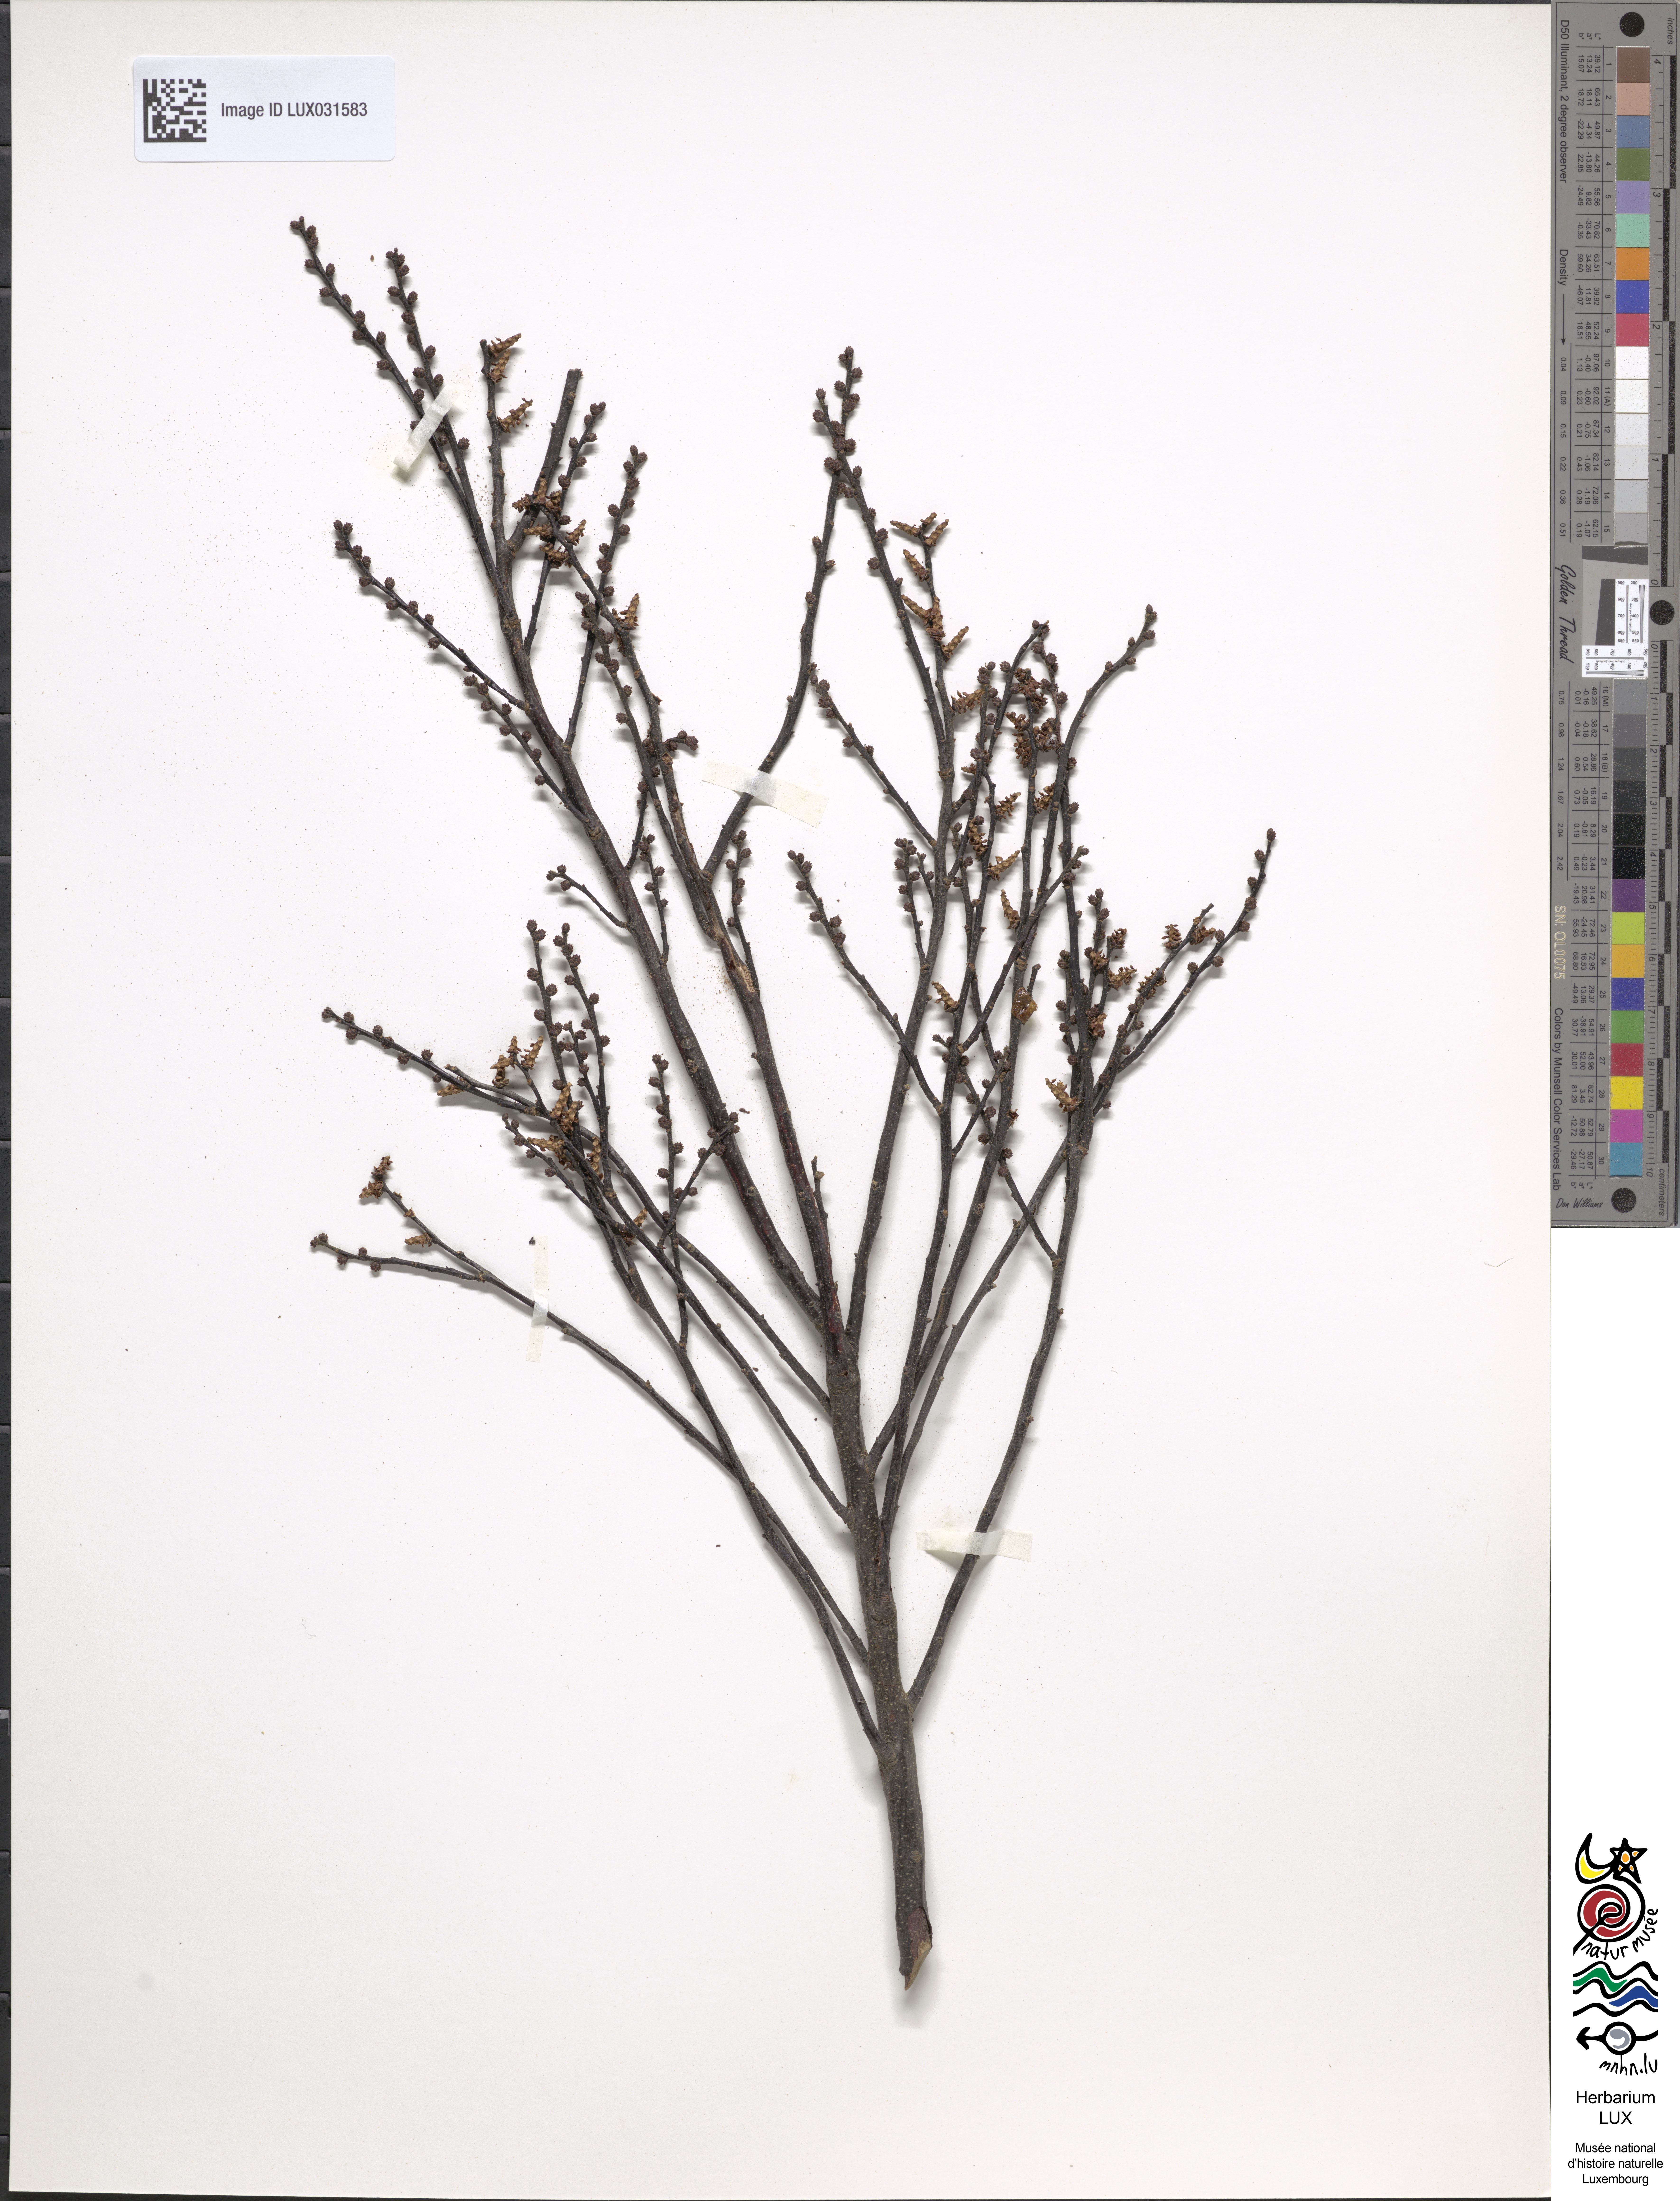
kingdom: Plantae
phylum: Tracheophyta
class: Magnoliopsida
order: Fagales
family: Myricaceae
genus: Myrica
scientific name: Myrica gale
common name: Sweet gale
